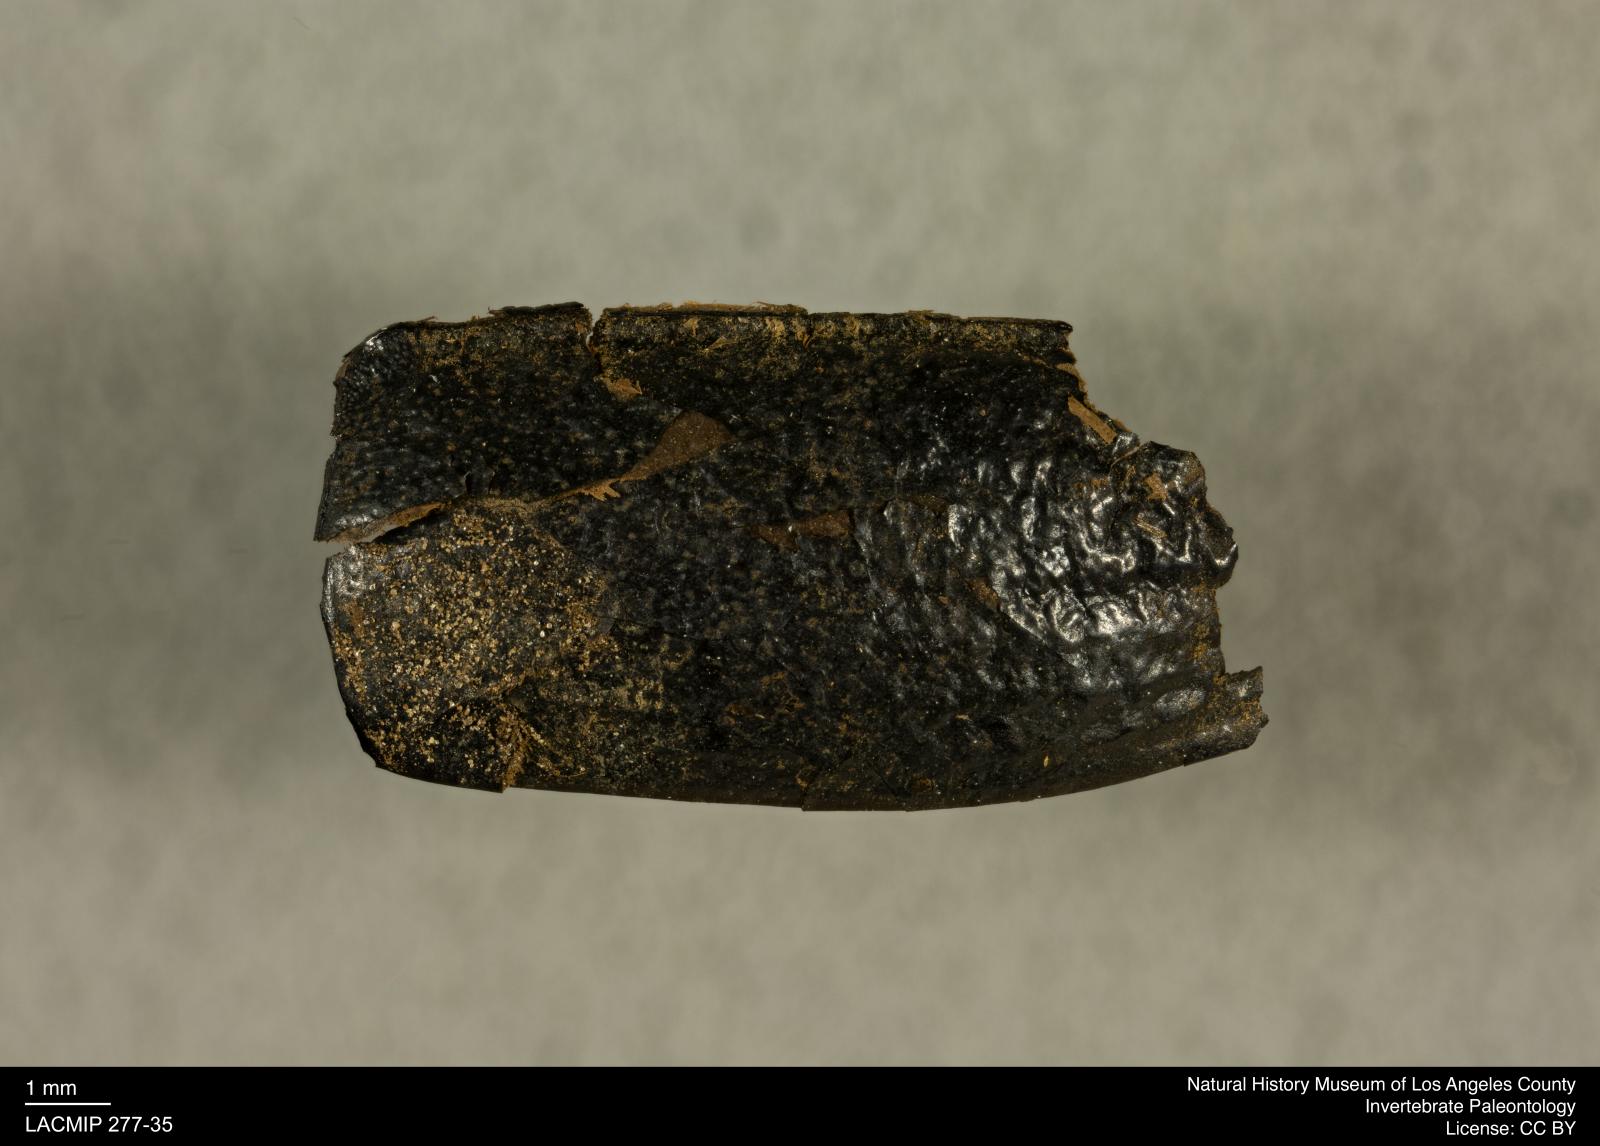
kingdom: Animalia
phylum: Arthropoda
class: Insecta
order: Coleoptera
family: Tenebrionidae
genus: Coniontis
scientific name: Coniontis abdominalis
